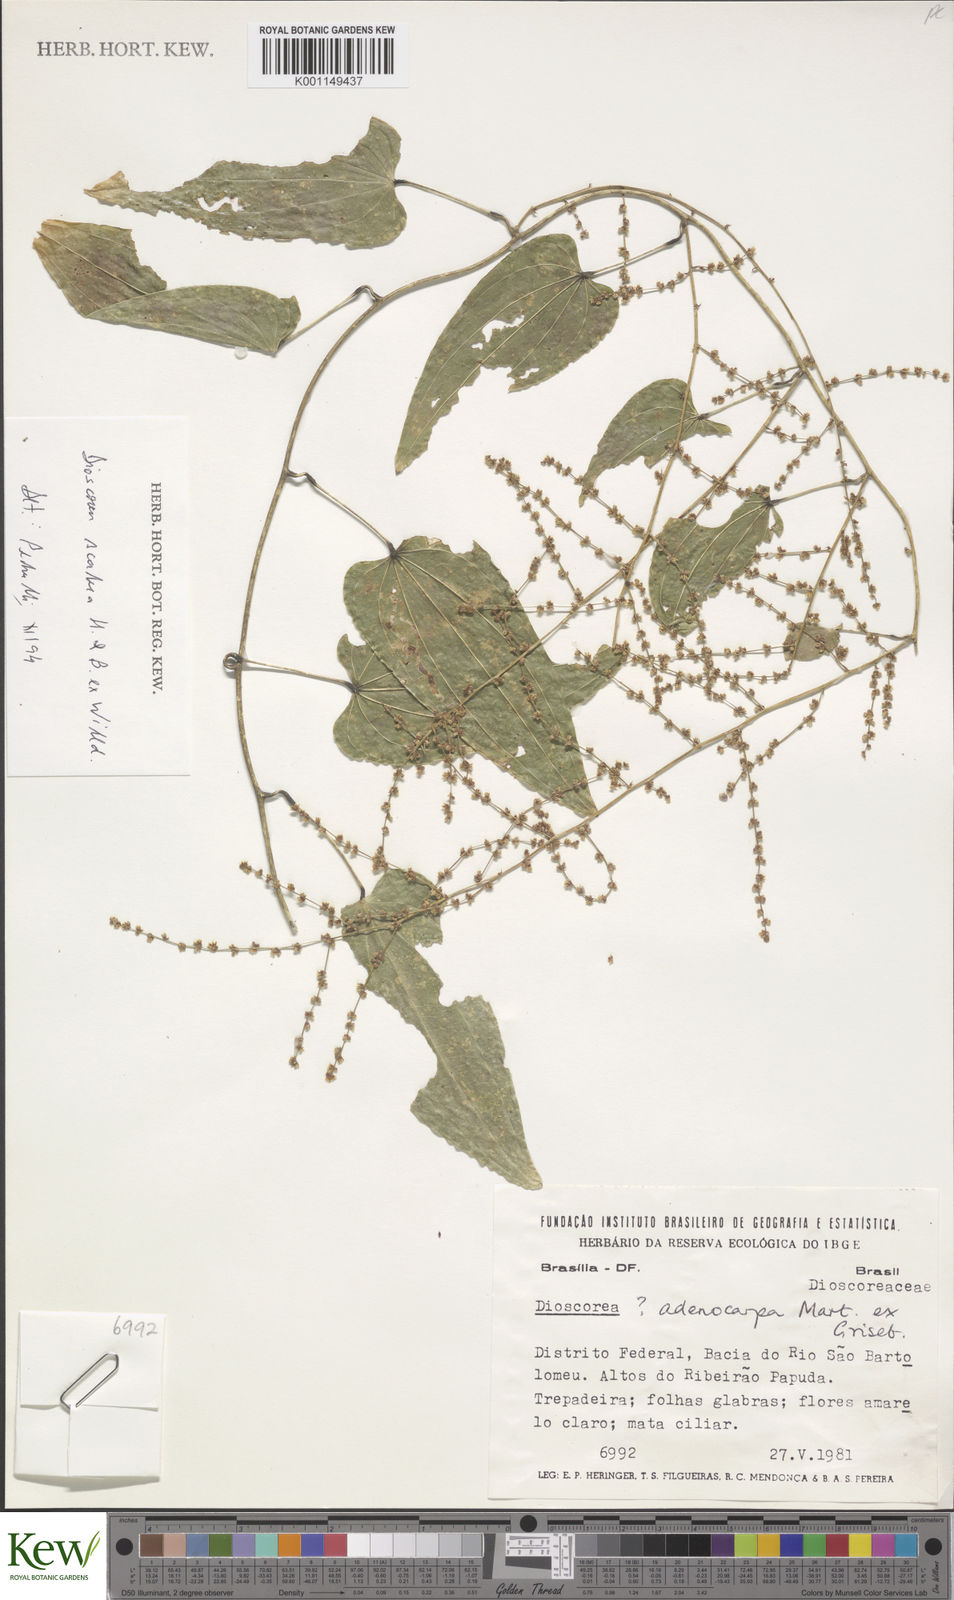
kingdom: Plantae
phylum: Tracheophyta
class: Liliopsida
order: Dioscoreales
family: Dioscoreaceae
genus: Dioscorea
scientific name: Dioscorea scabra
